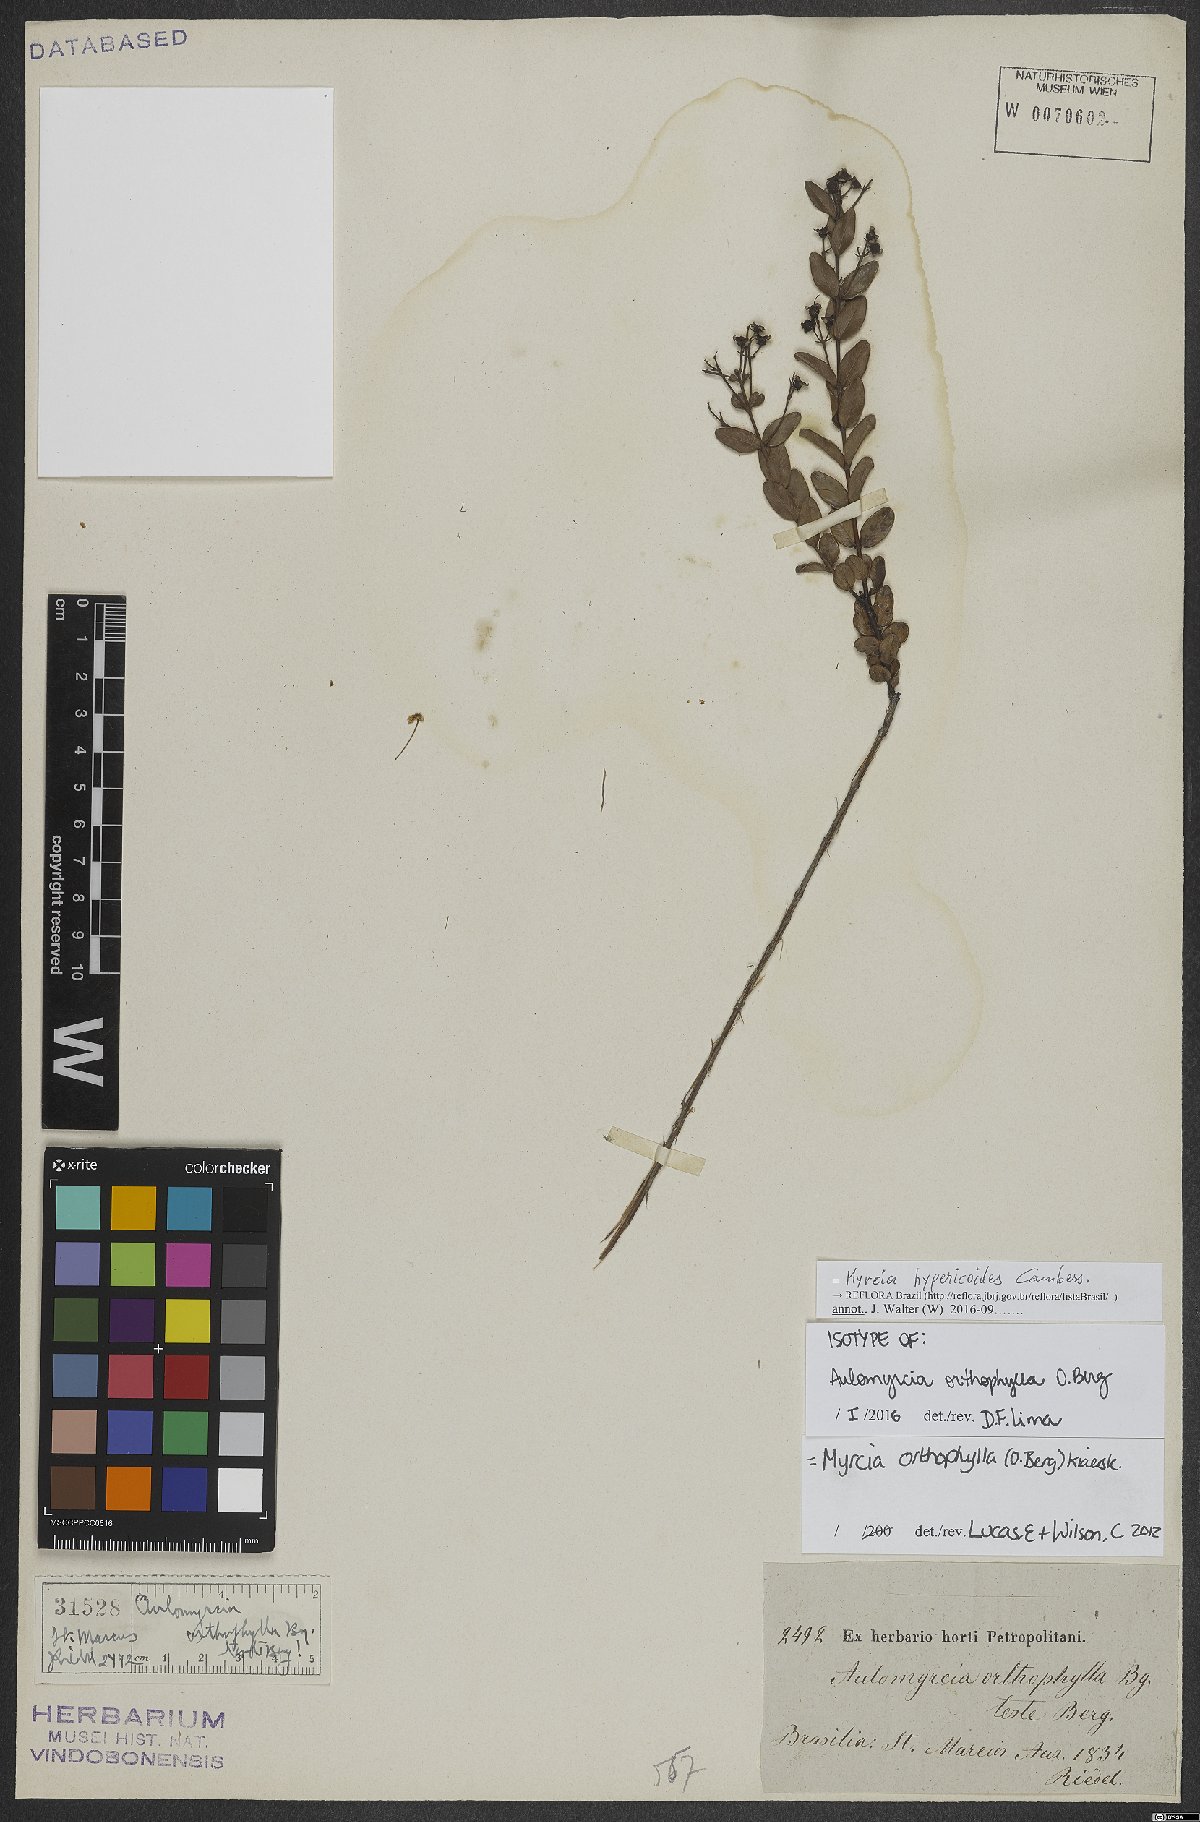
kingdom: Plantae
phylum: Tracheophyta
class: Magnoliopsida
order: Myrtales
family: Myrtaceae
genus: Myrcia
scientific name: Myrcia hypericoides
